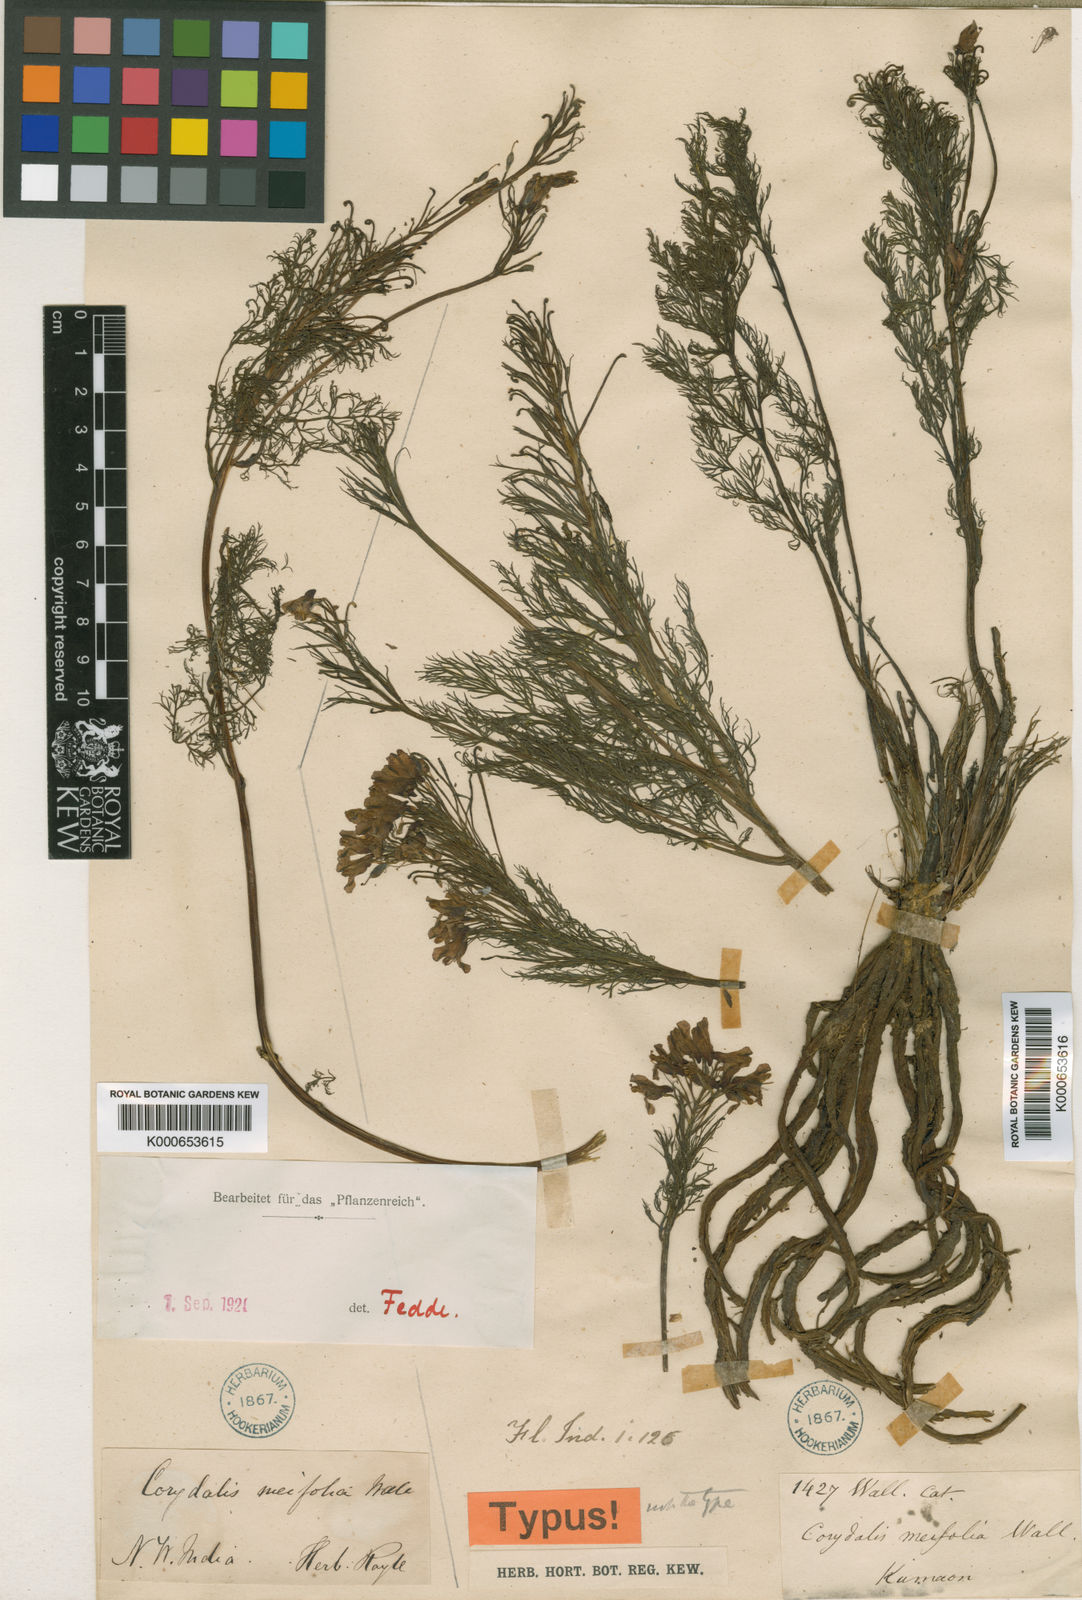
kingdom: Plantae
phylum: Tracheophyta
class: Magnoliopsida
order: Ranunculales
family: Papaveraceae
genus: Corydalis
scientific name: Corydalis meifolia
